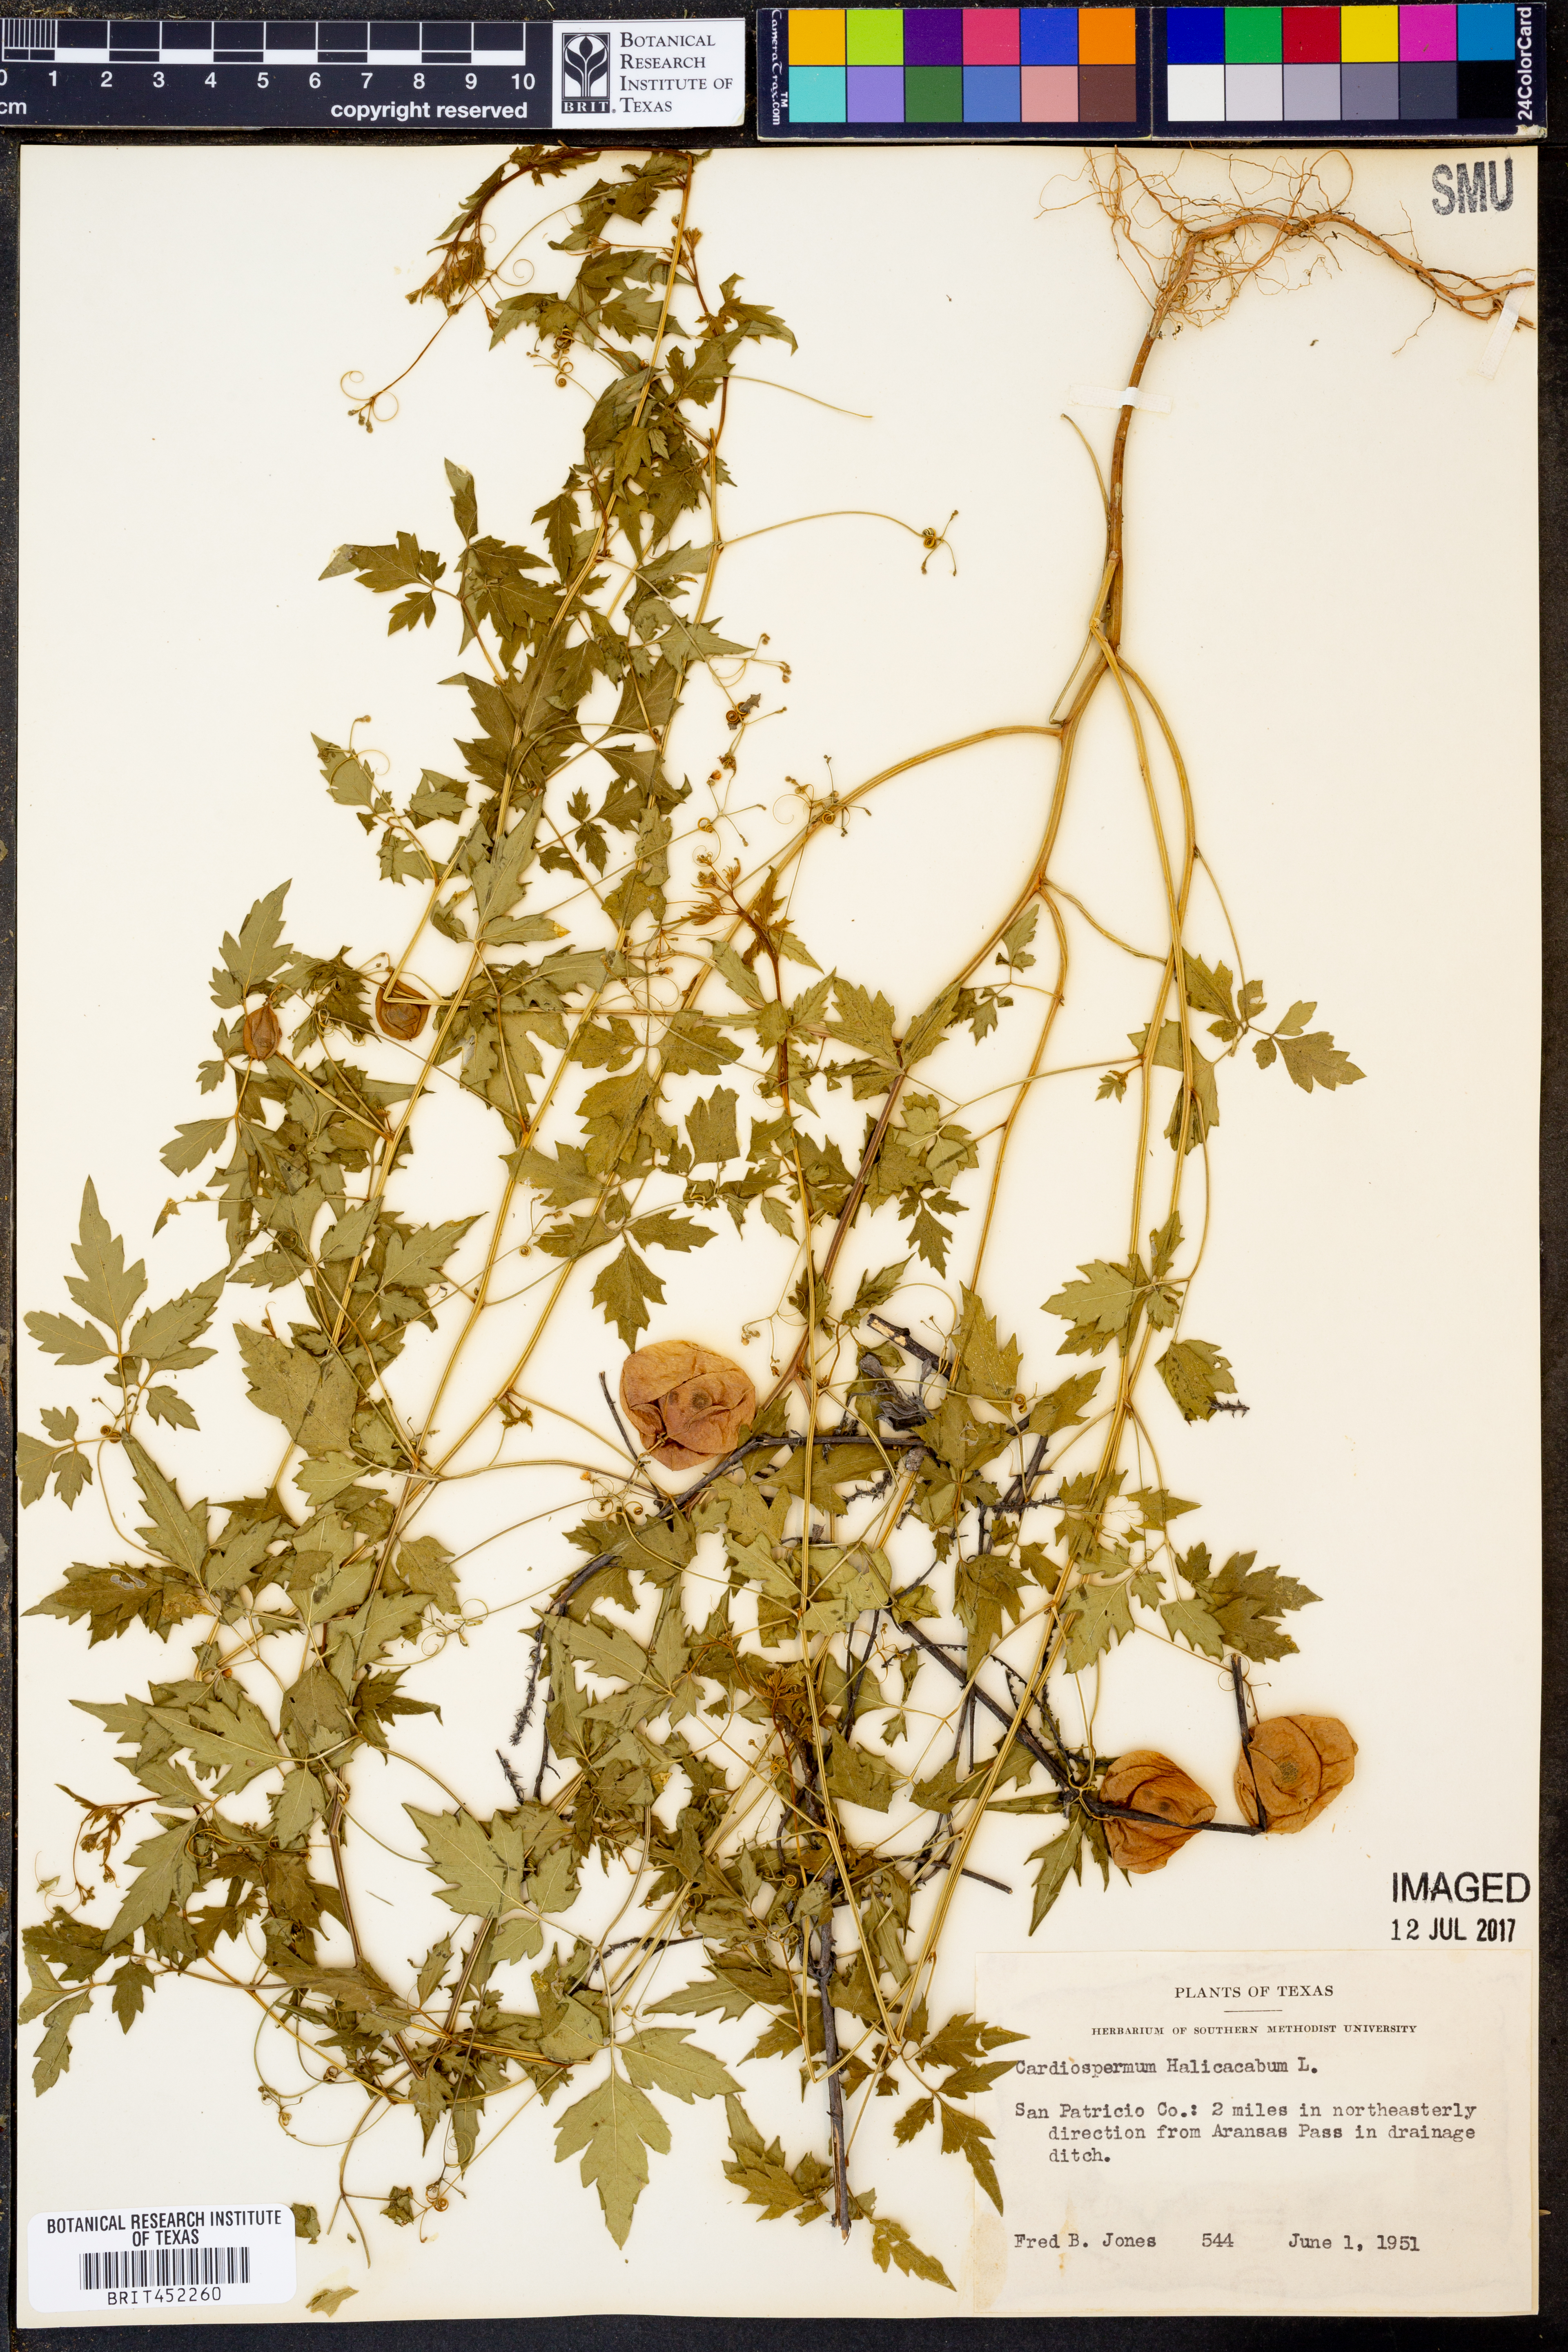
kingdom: Plantae
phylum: Tracheophyta
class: Magnoliopsida
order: Sapindales
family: Sapindaceae
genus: Cardiospermum
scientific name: Cardiospermum halicacabum
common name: Balloon vine
